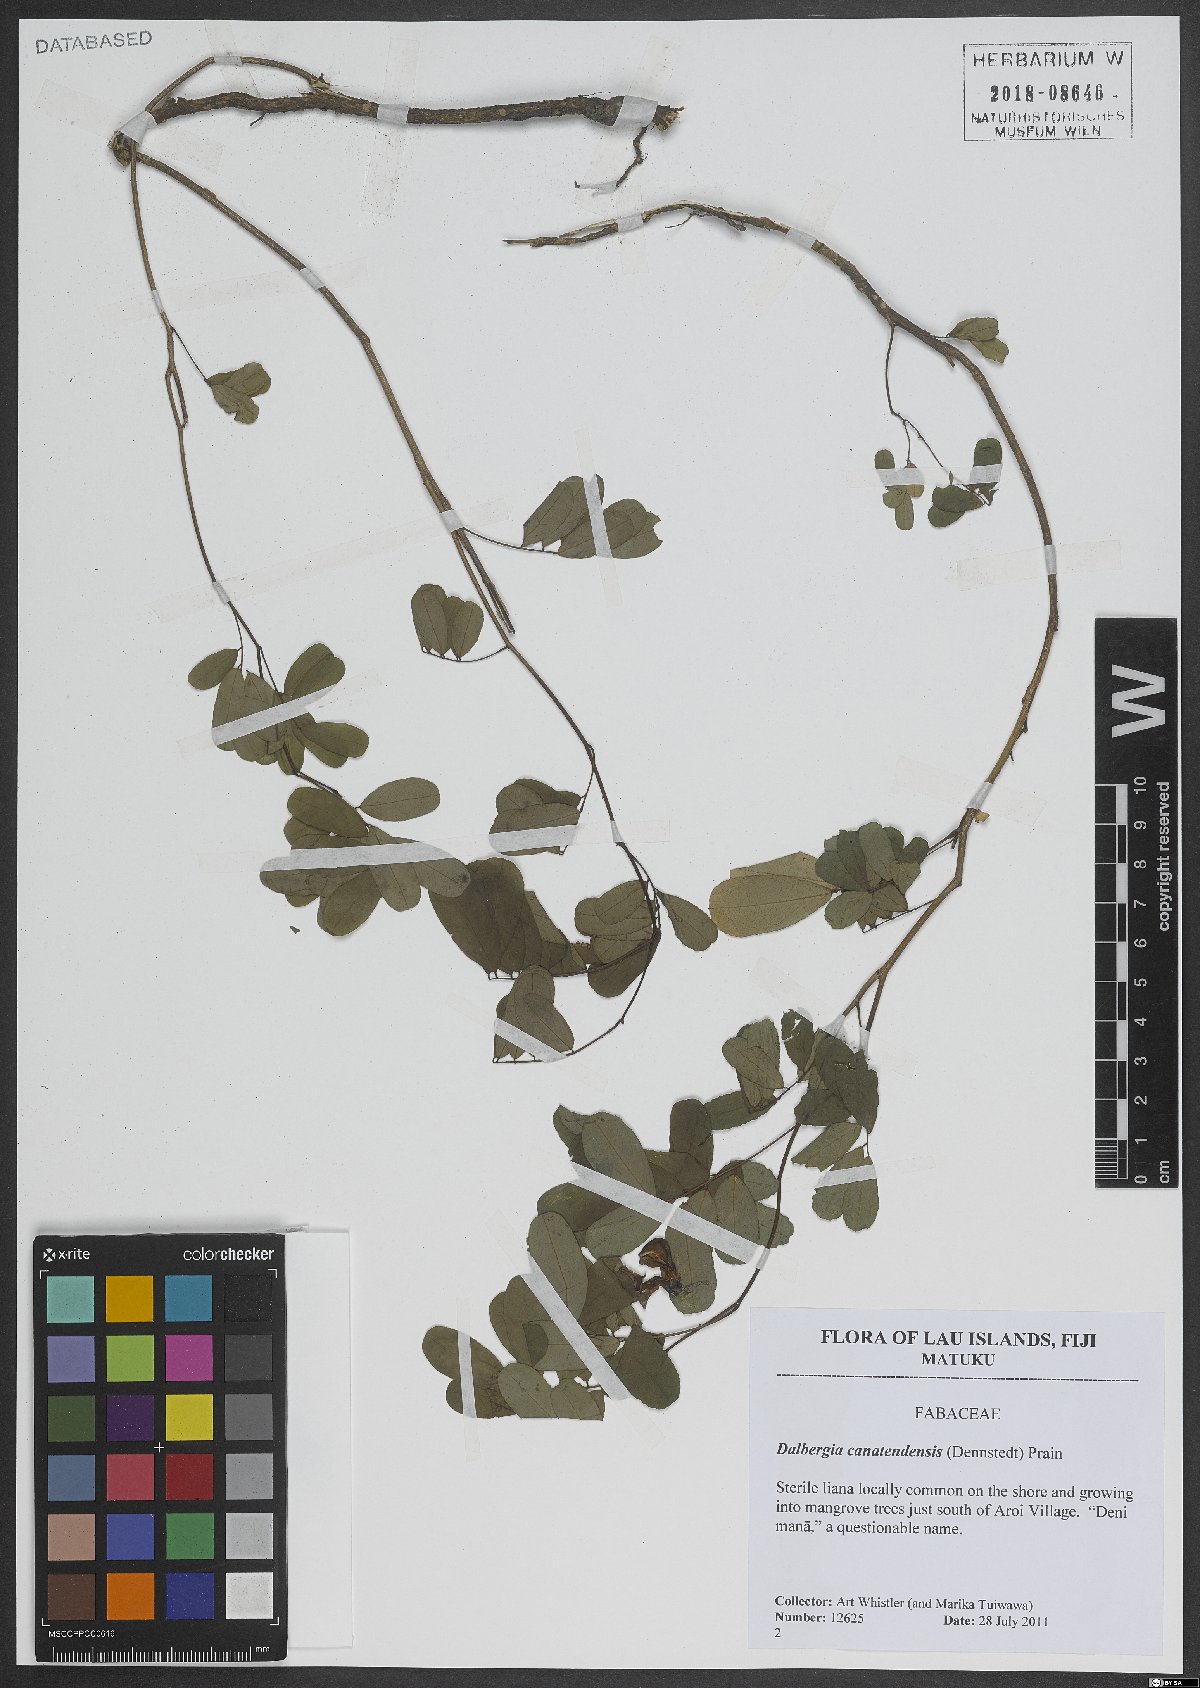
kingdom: Plantae
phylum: Tracheophyta
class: Magnoliopsida
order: Fabales
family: Fabaceae
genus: Dalbergia
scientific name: Dalbergia candenatensis
